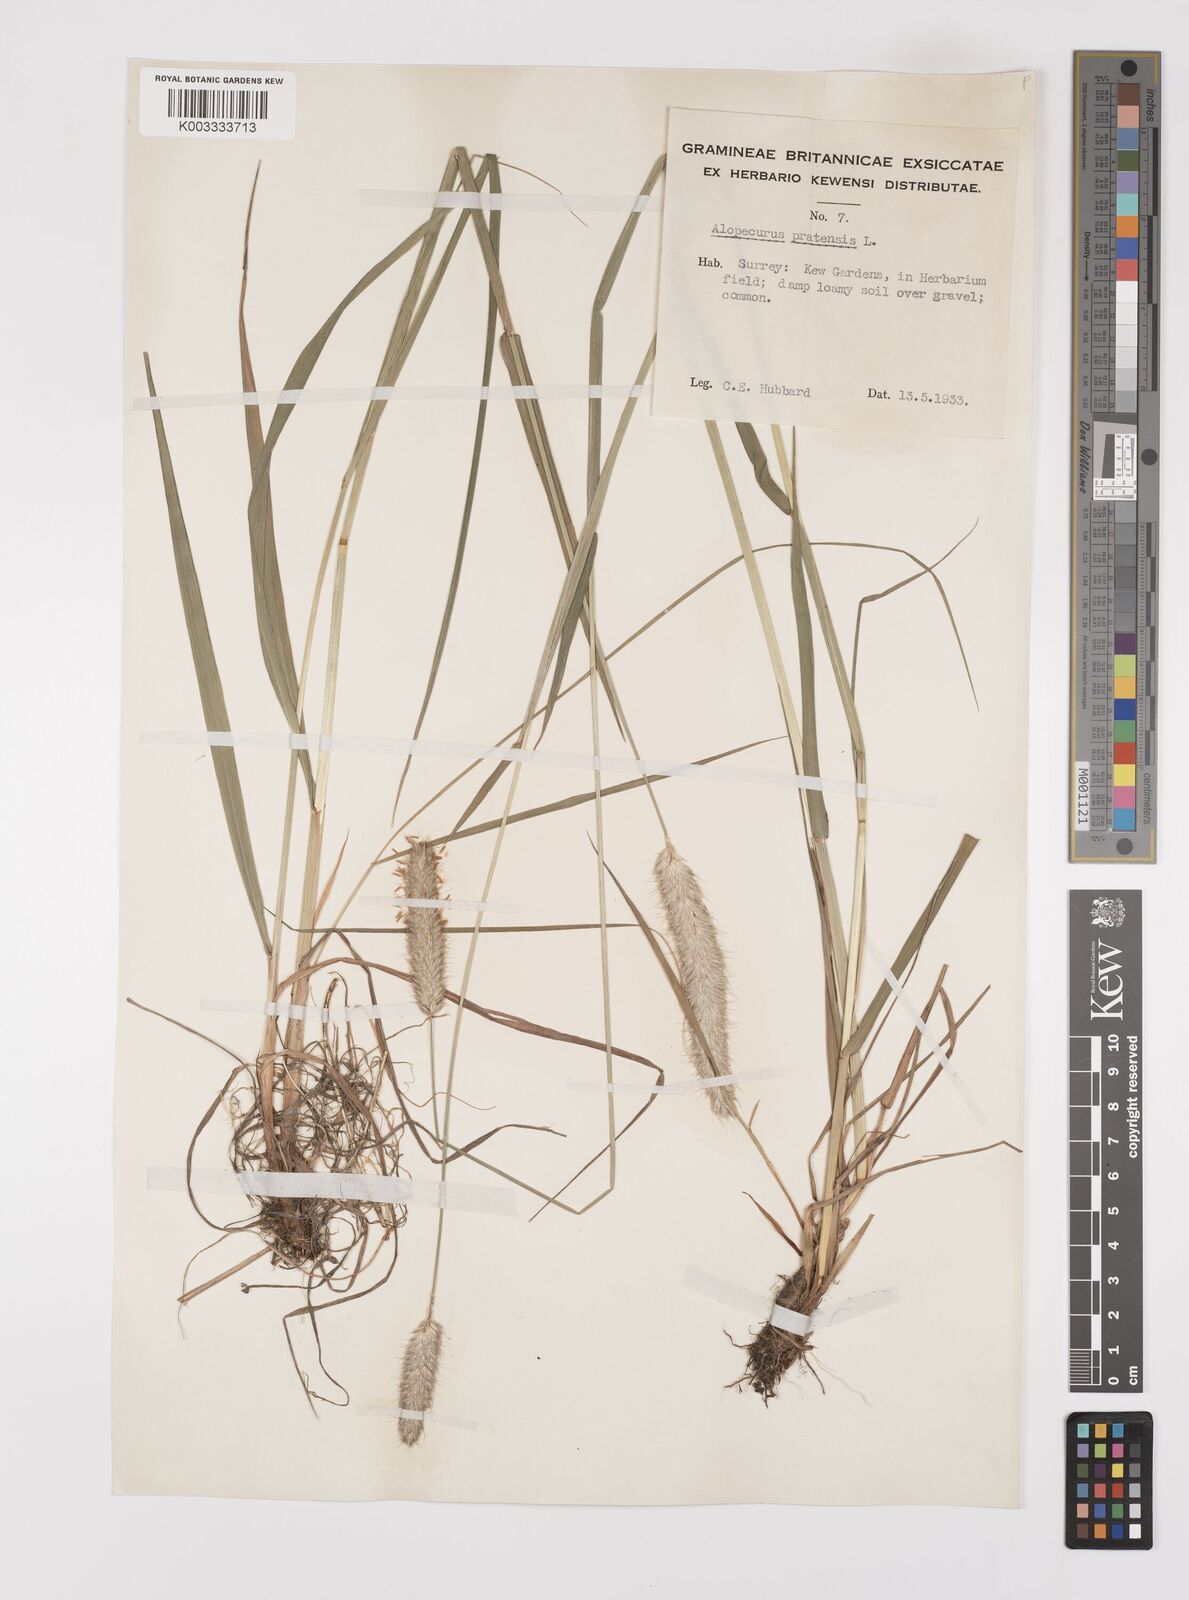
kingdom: Plantae
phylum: Tracheophyta
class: Liliopsida
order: Poales
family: Poaceae
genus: Alopecurus
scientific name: Alopecurus pratensis
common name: Meadow foxtail
